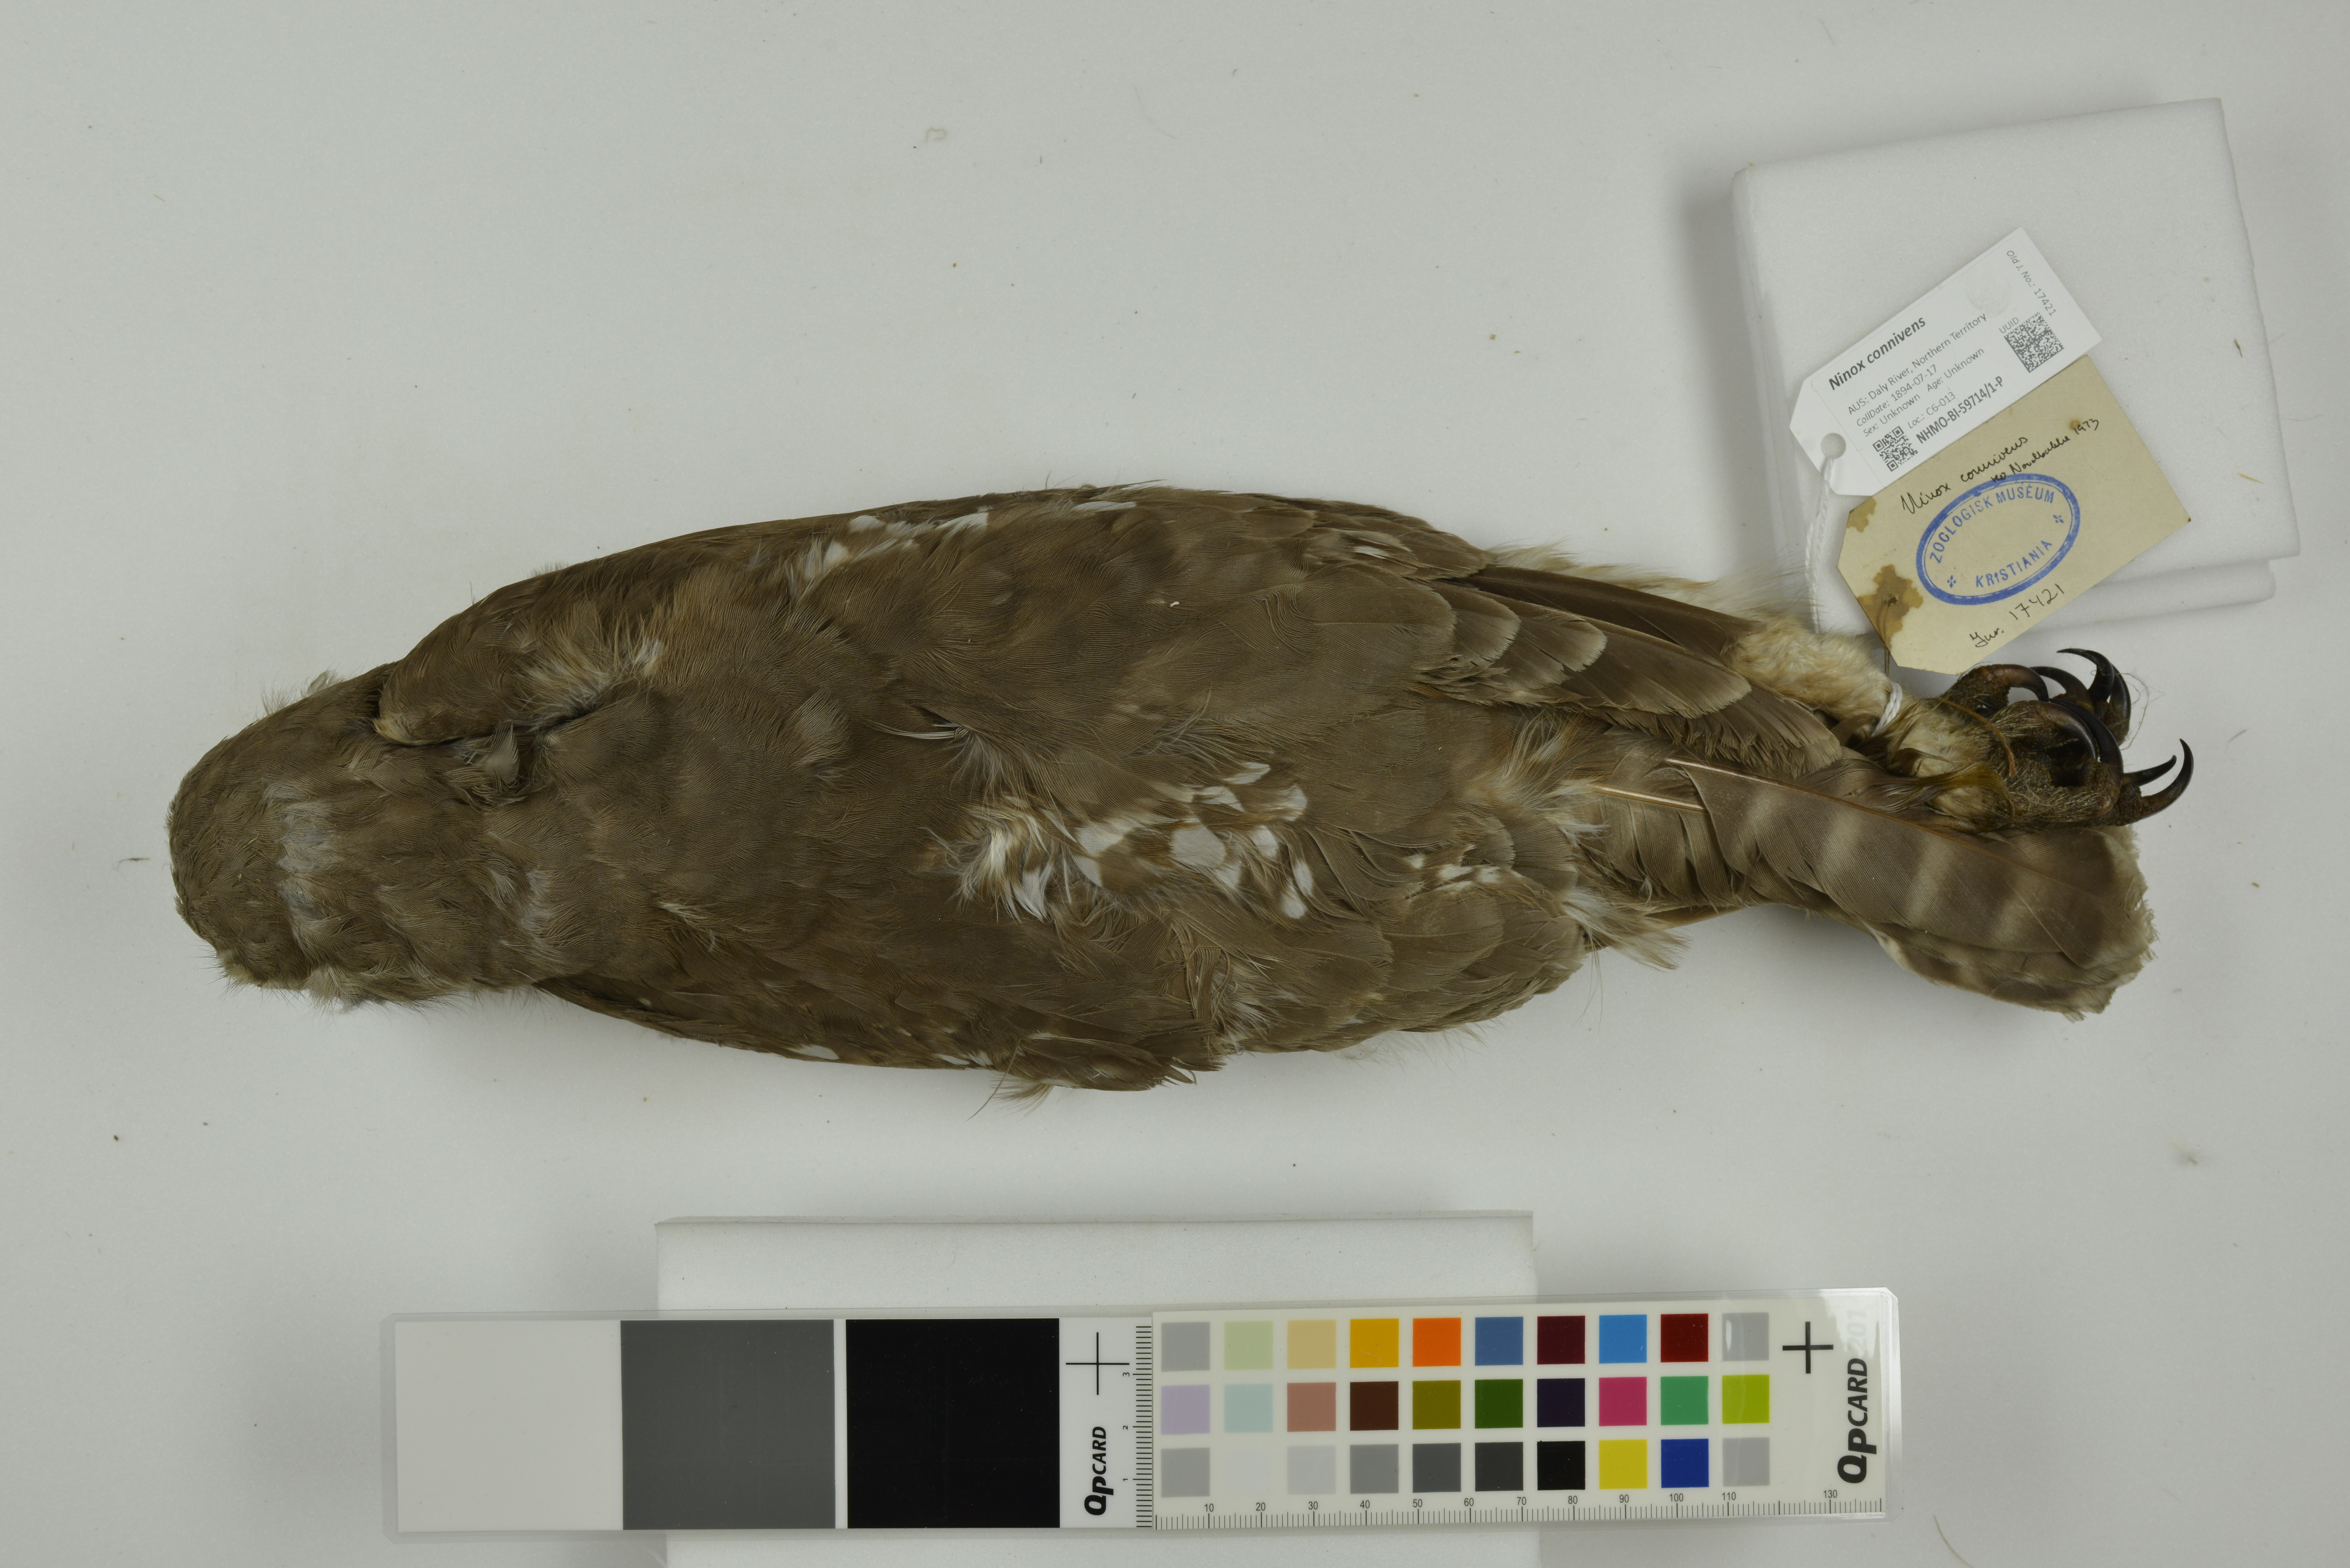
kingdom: Animalia
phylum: Chordata
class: Aves
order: Strigiformes
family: Strigidae
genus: Ninox
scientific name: Ninox connivens
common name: Barking owl
